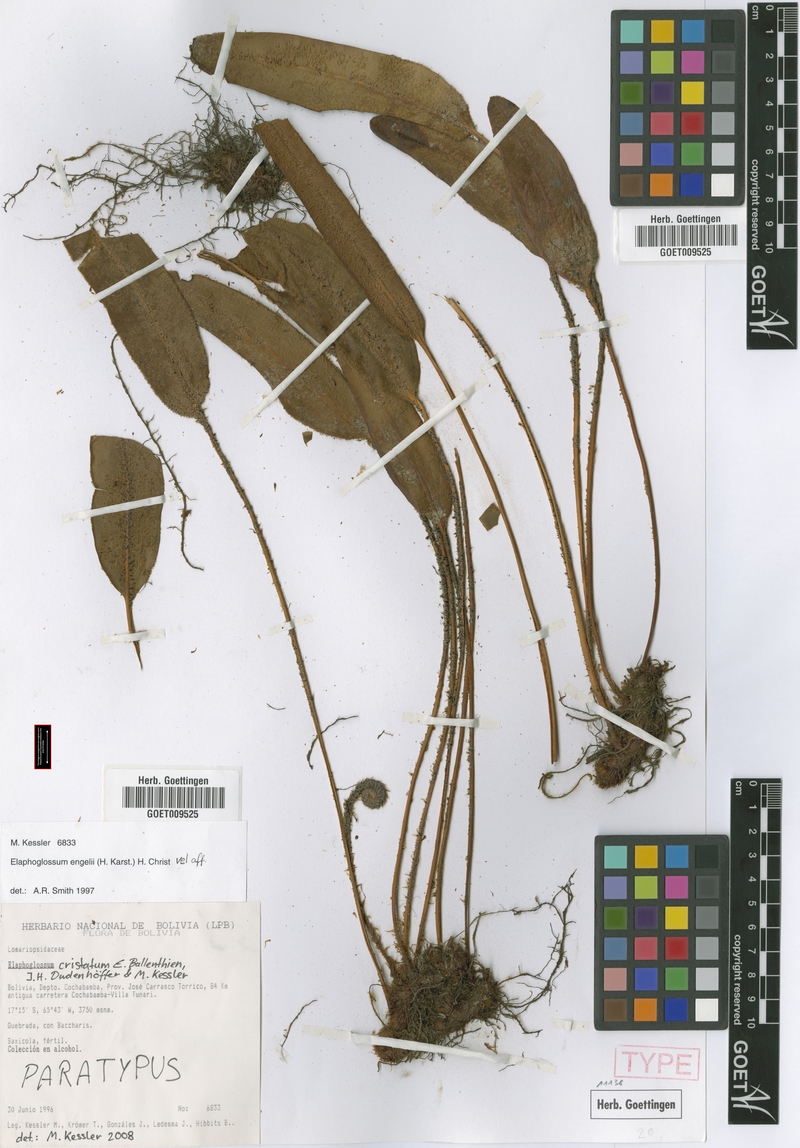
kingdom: Plantae
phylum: Tracheophyta
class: Polypodiopsida
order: Polypodiales
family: Dryopteridaceae
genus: Elaphoglossum
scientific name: Elaphoglossum engelii
